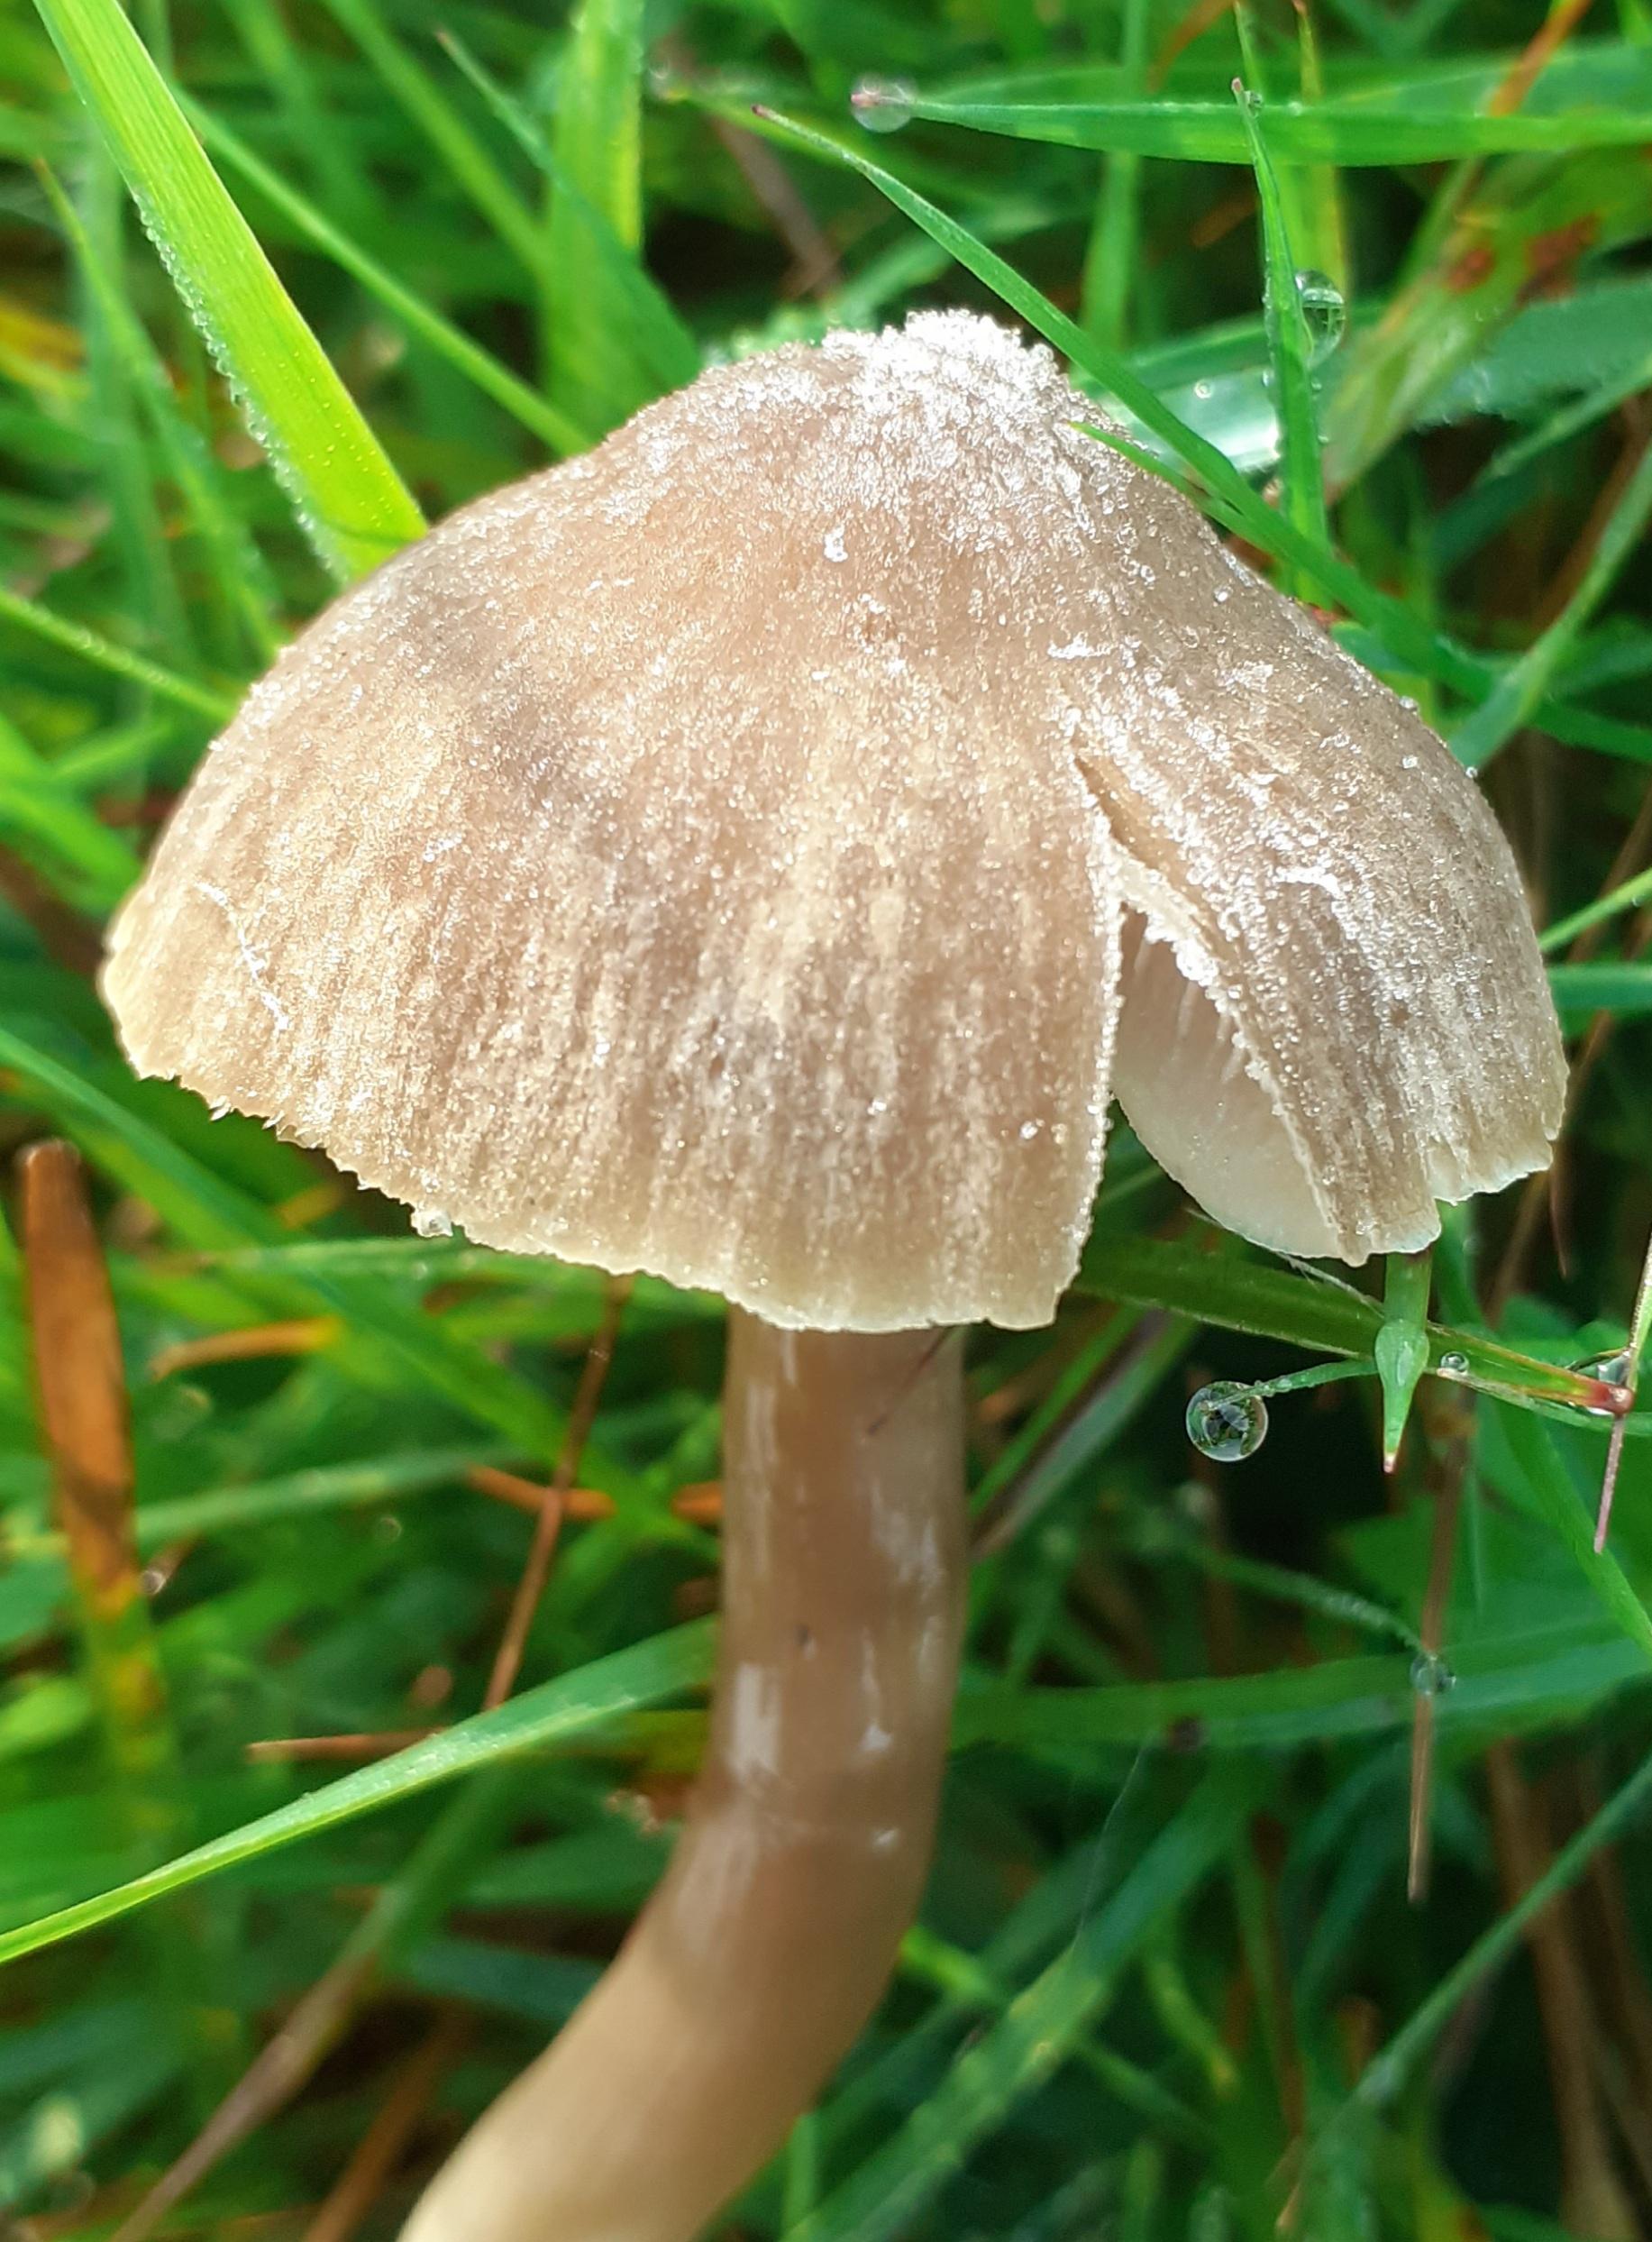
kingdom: Fungi
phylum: Basidiomycota
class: Agaricomycetes
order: Agaricales
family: Hygrophoraceae
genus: Neohygrocybe
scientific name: Neohygrocybe nitrata
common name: stinkende vokshat
